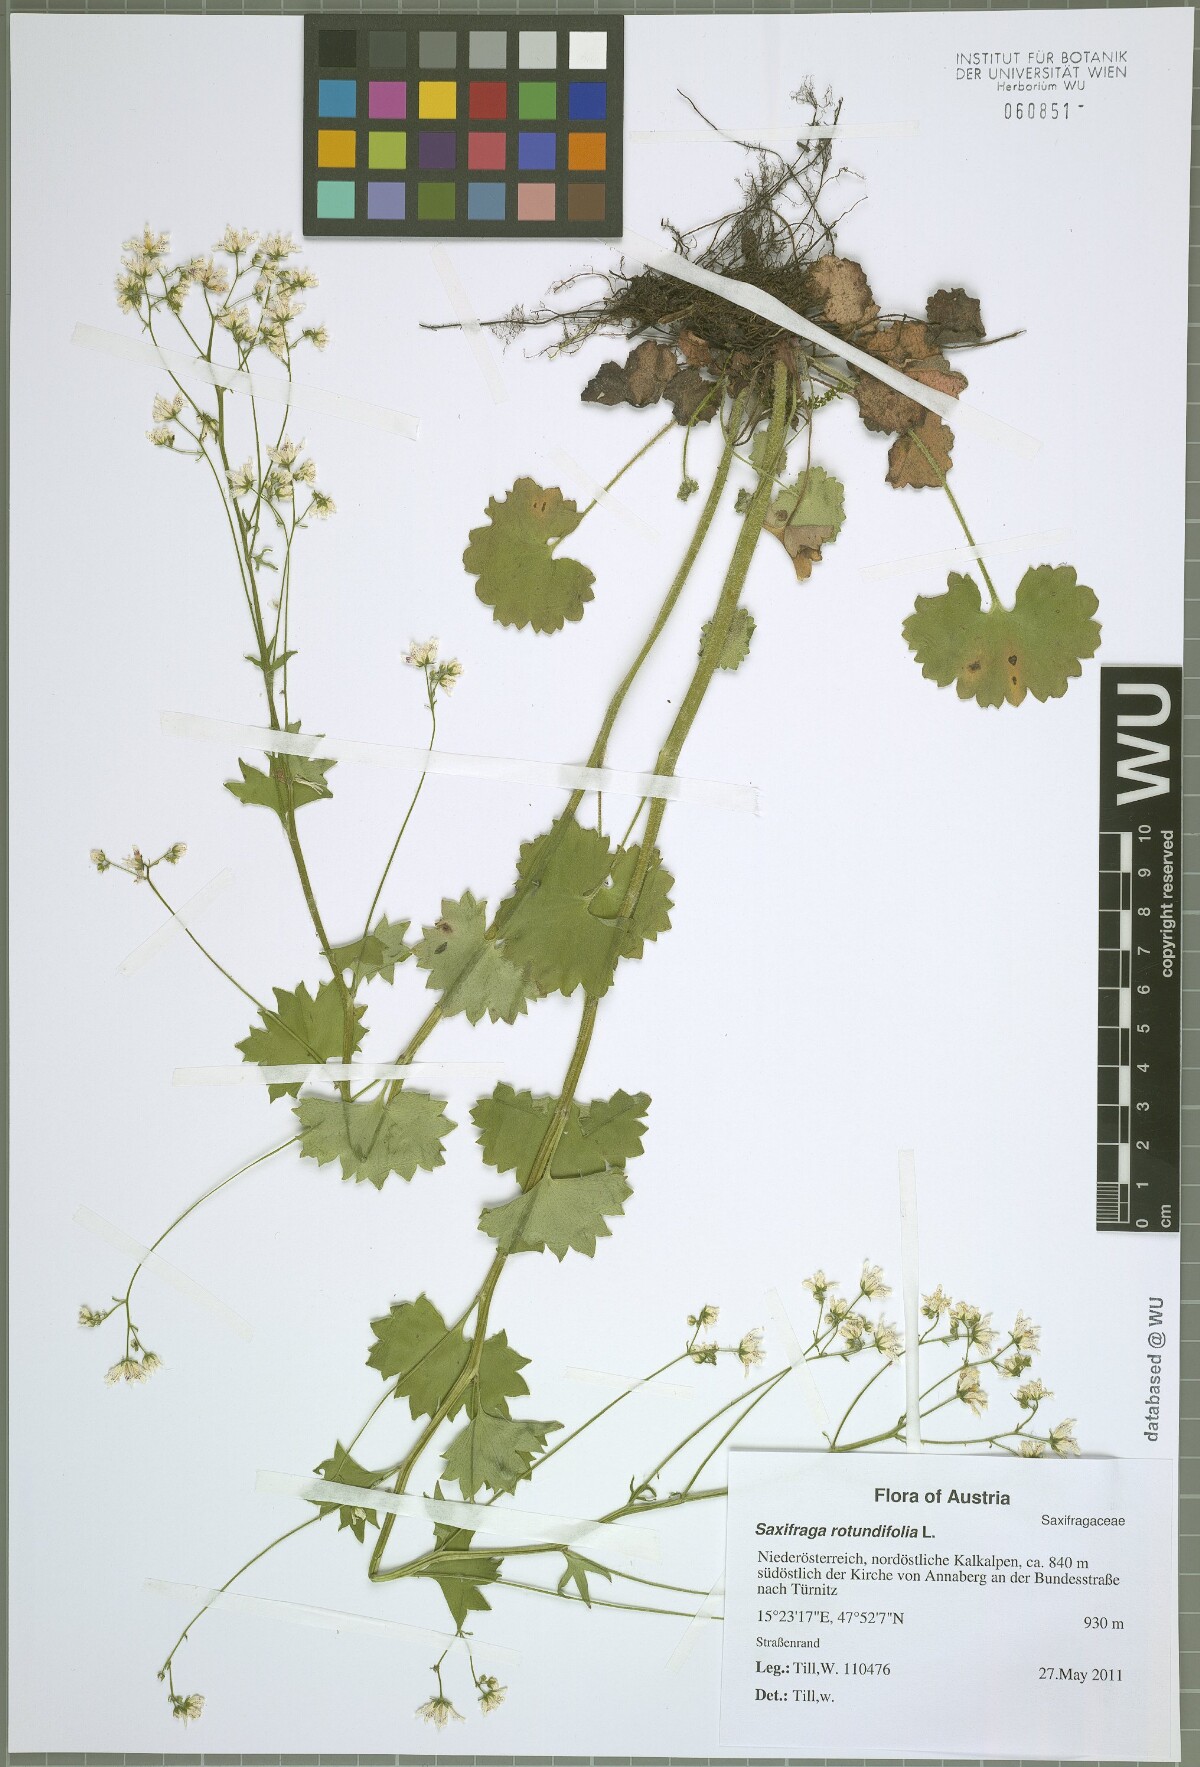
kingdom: Plantae
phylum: Tracheophyta
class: Magnoliopsida
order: Saxifragales
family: Saxifragaceae
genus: Saxifraga
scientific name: Saxifraga rotundifolia
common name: Round-leaved saxifrage
